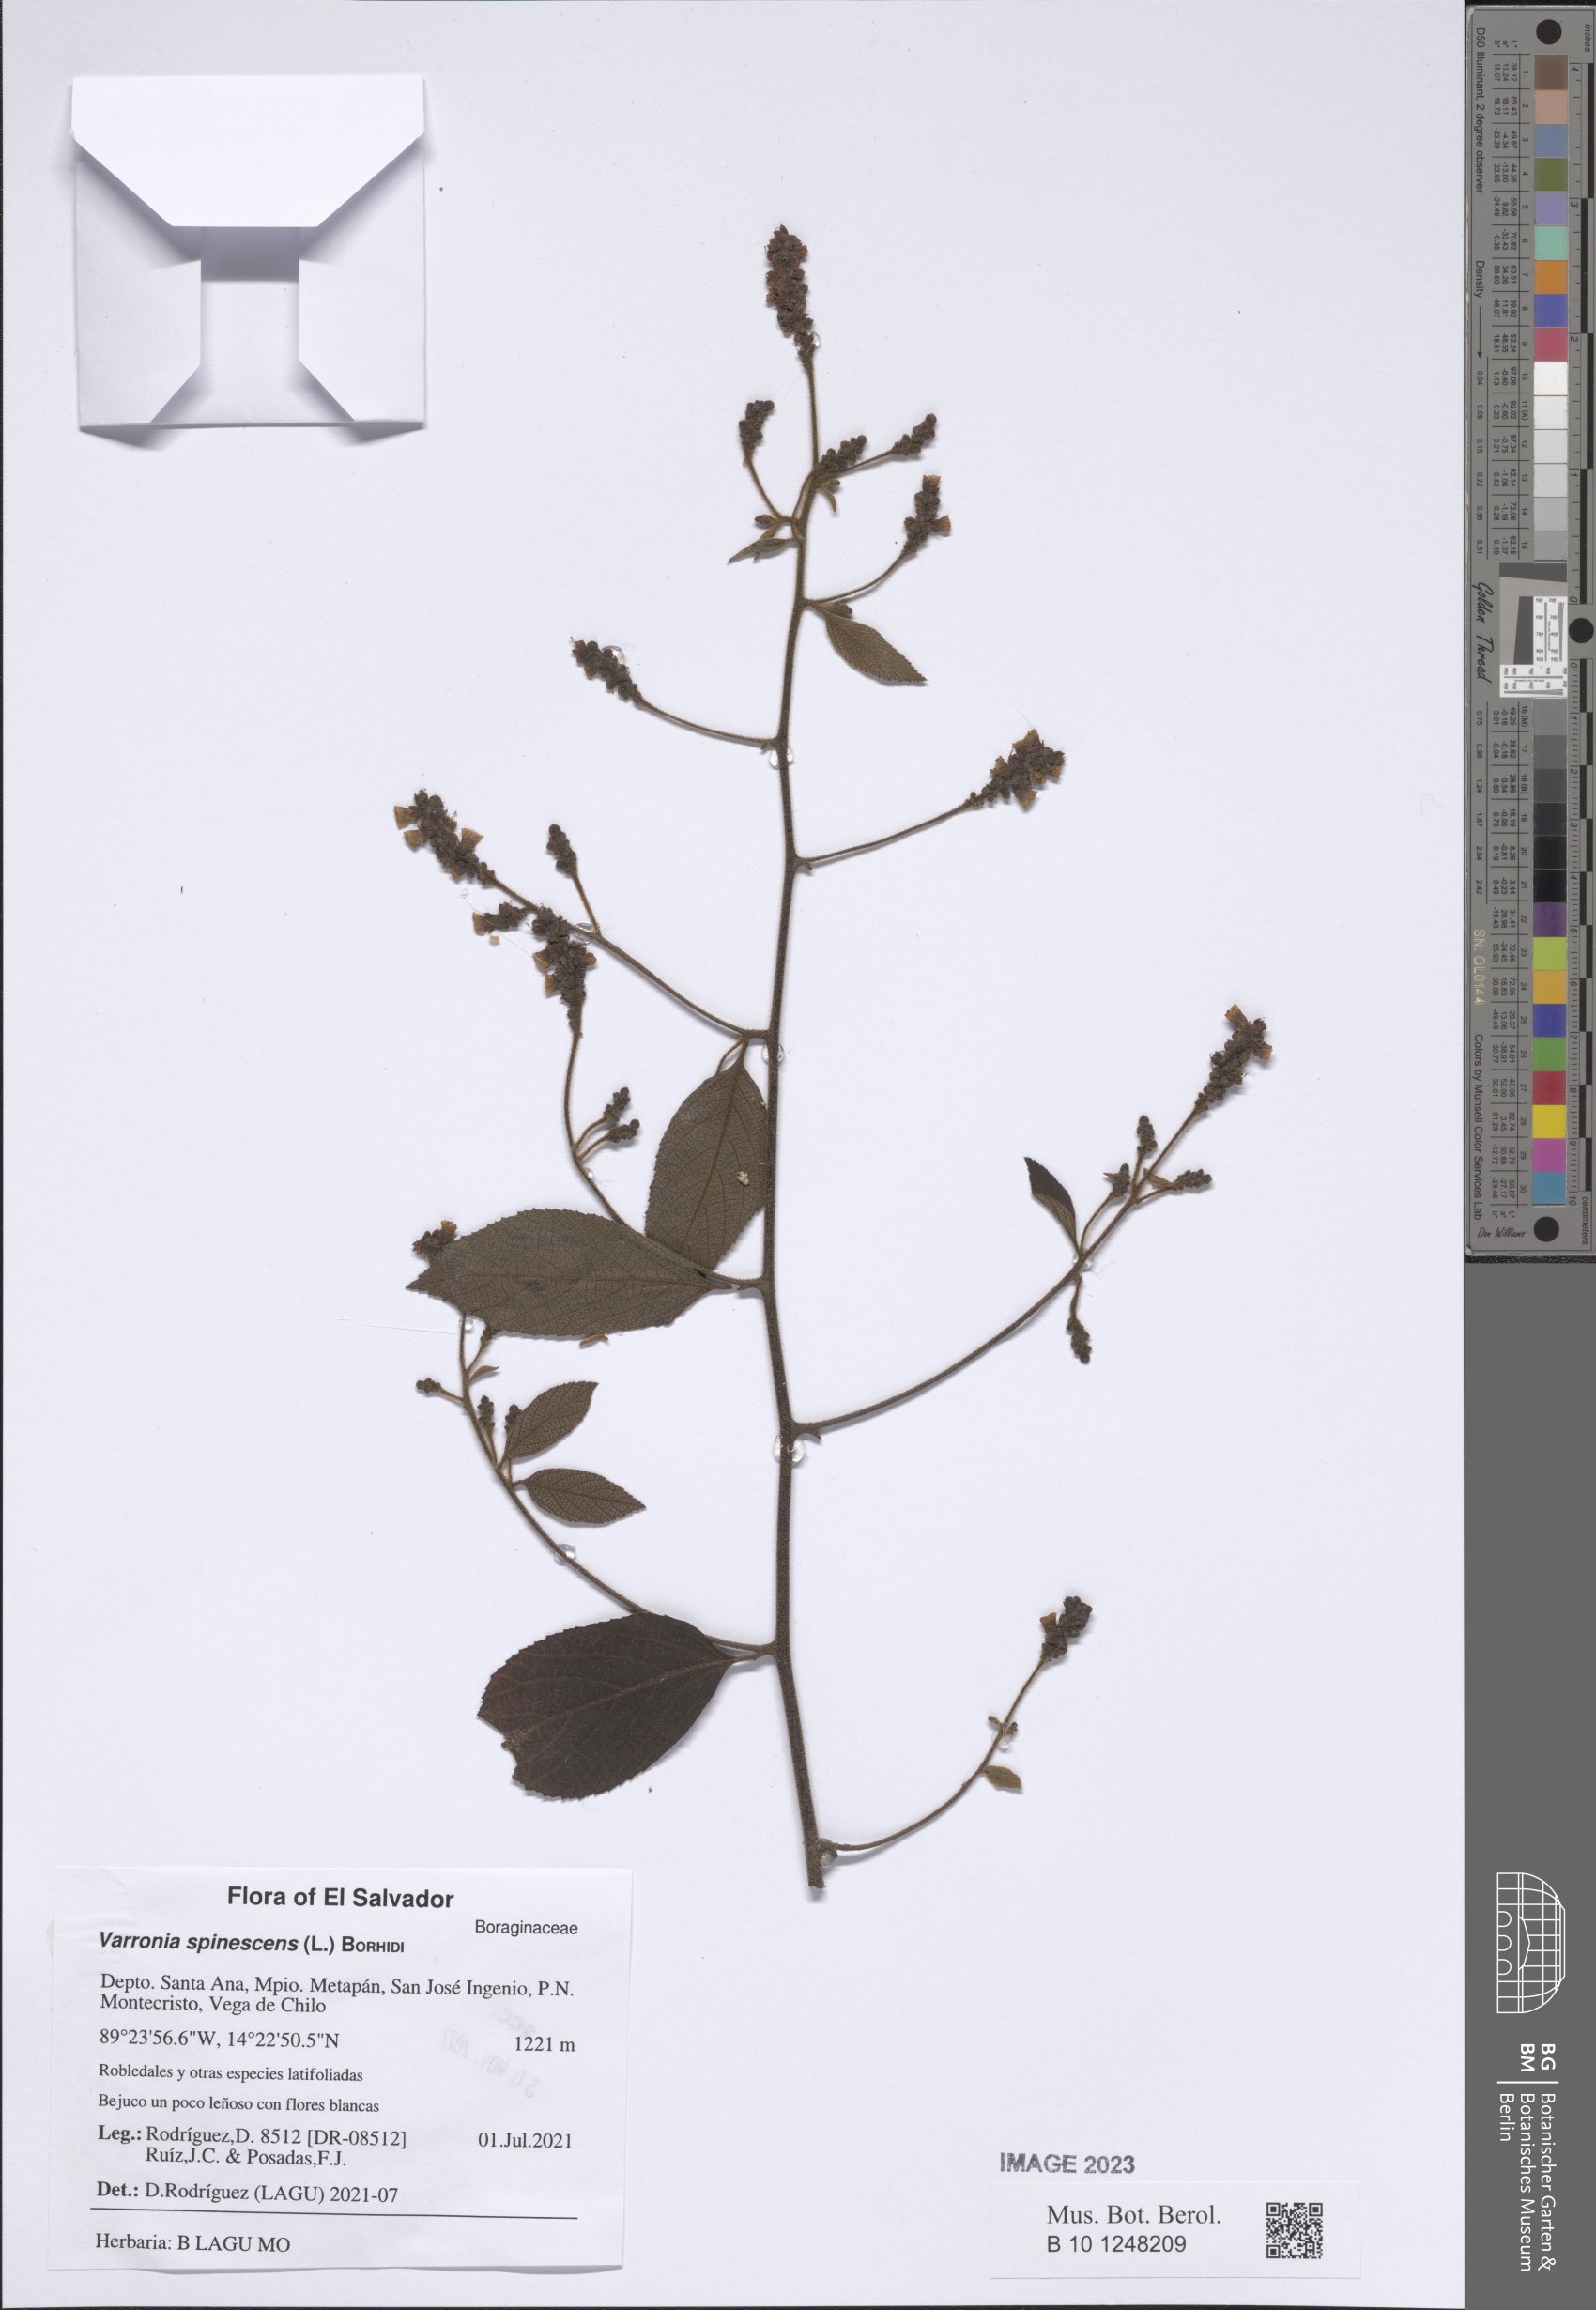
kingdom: Plantae
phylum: Tracheophyta
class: Magnoliopsida
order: Boraginales
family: Cordiaceae
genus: Varronia
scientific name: Varronia spinescens
